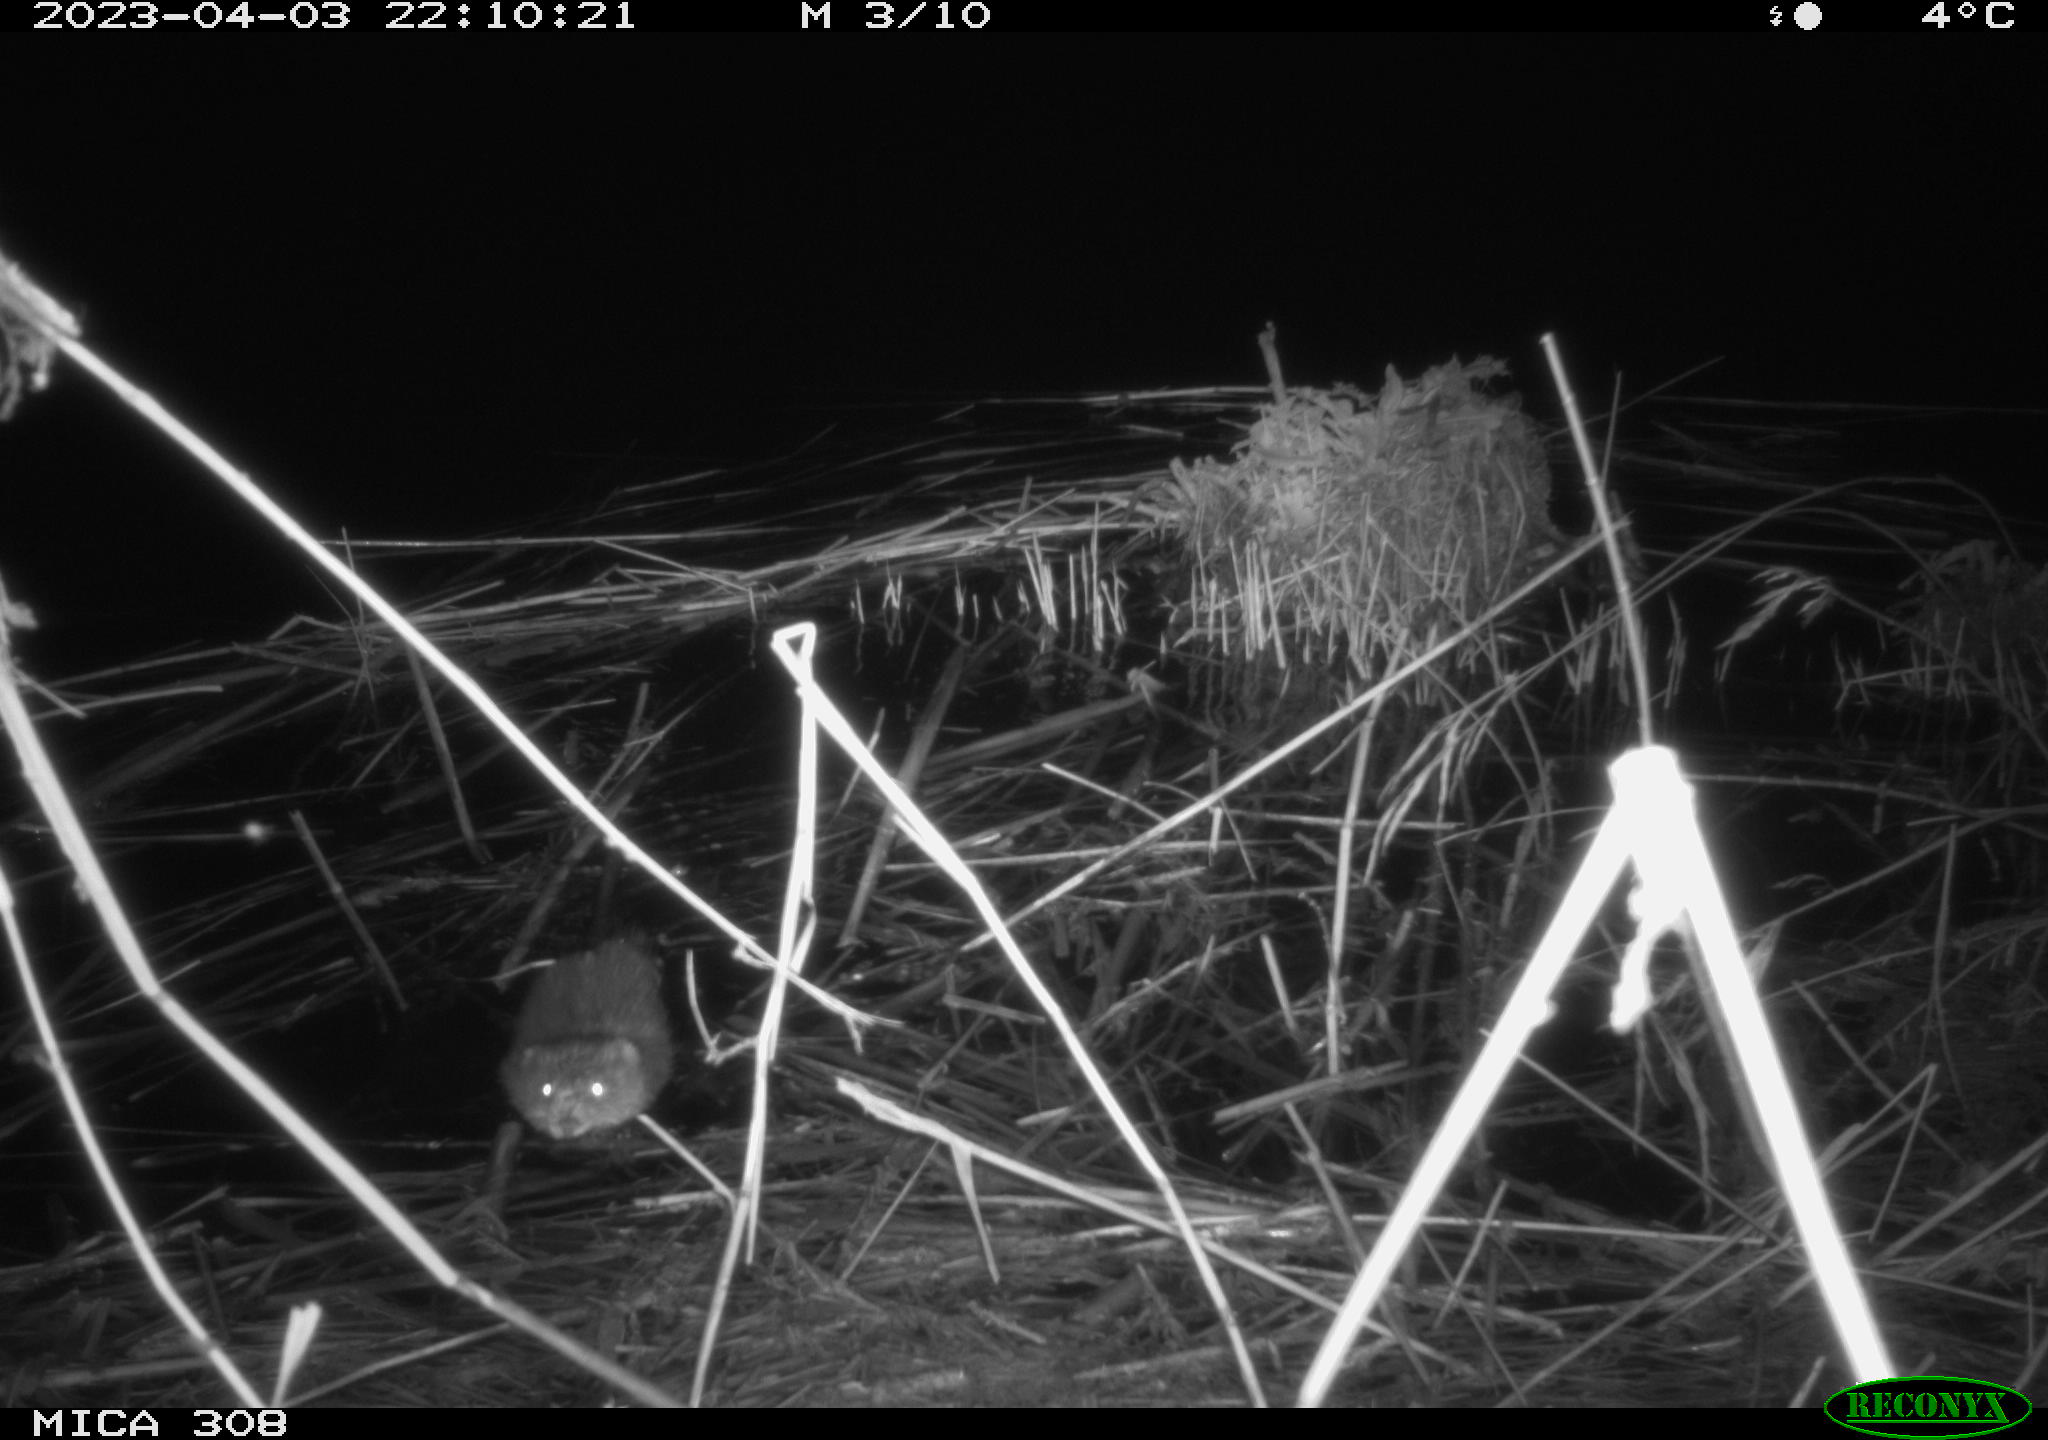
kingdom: Animalia
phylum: Chordata
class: Mammalia
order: Rodentia
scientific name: Rodentia
